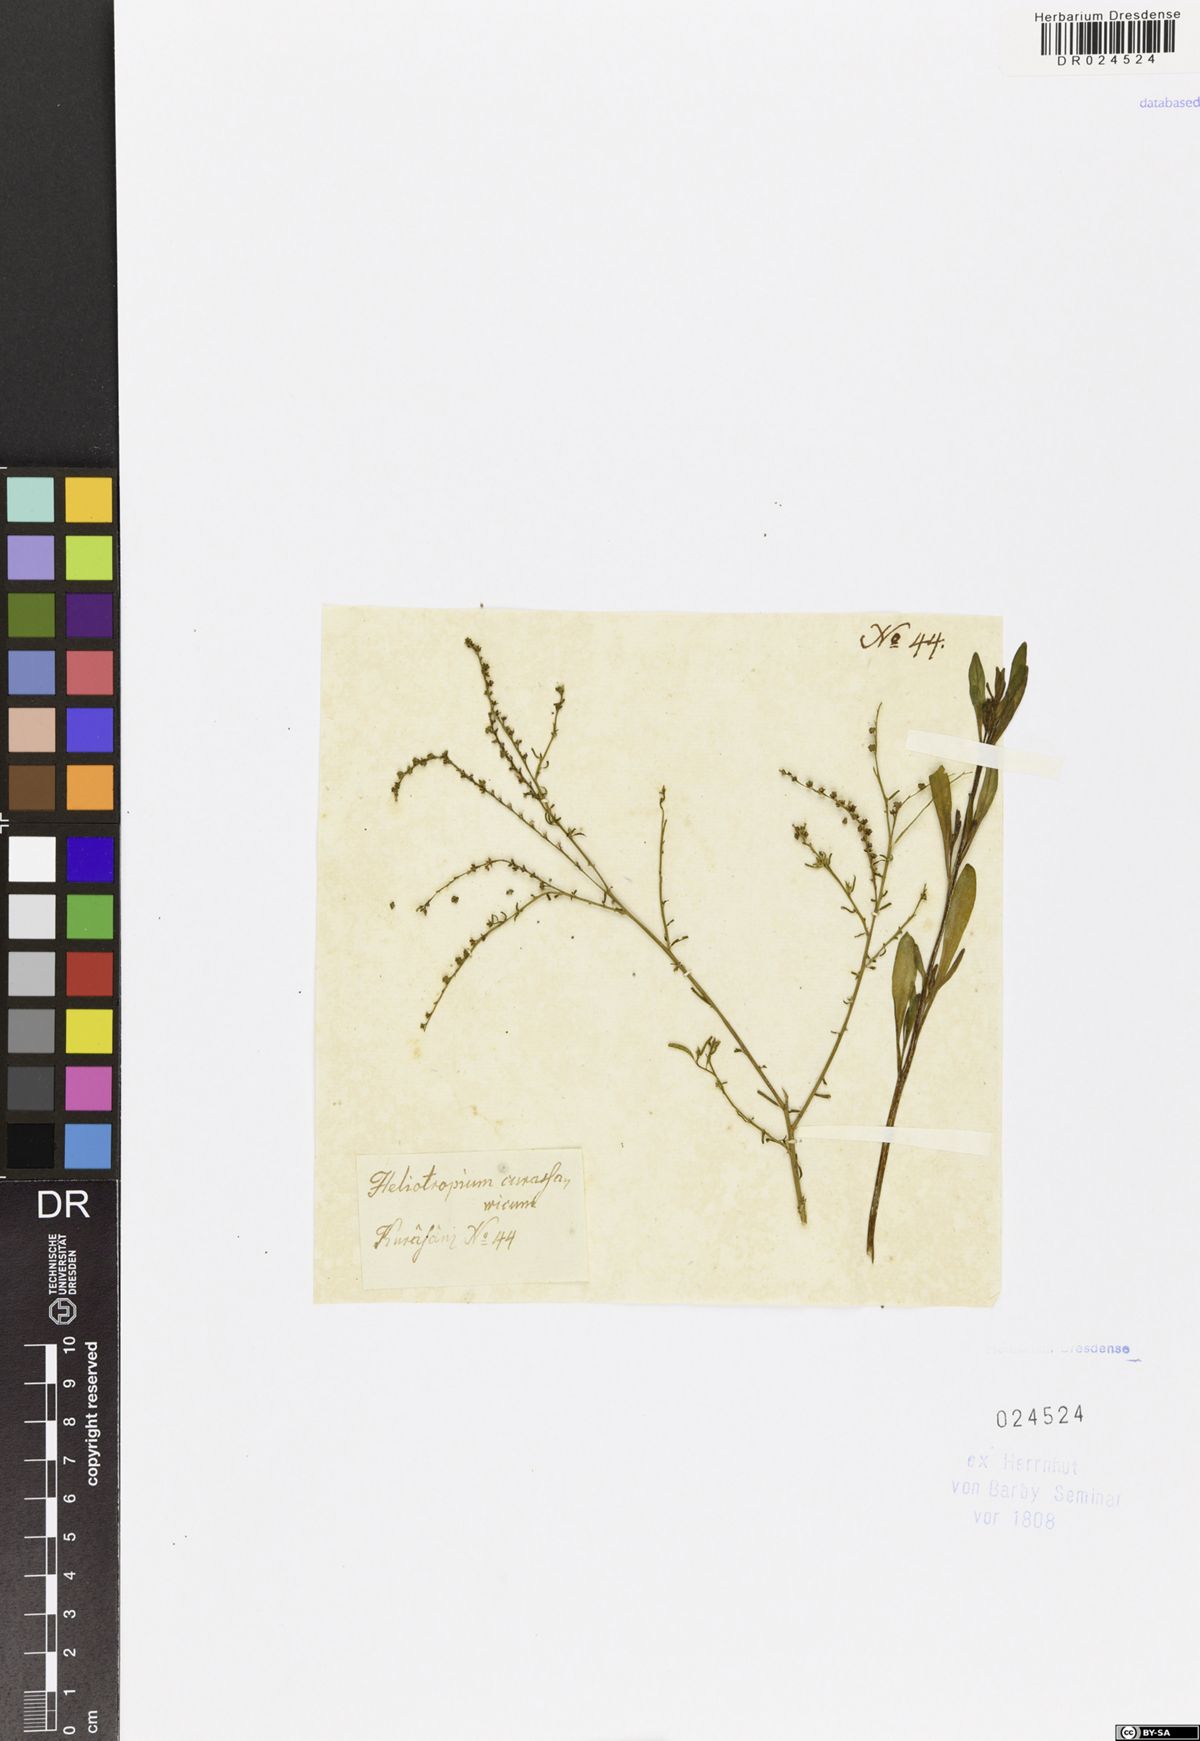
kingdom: Plantae
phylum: Tracheophyta
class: Magnoliopsida
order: Boraginales
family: Heliotropiaceae
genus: Heliotropium
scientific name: Heliotropium curassavicum
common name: Seaside heliotrope
